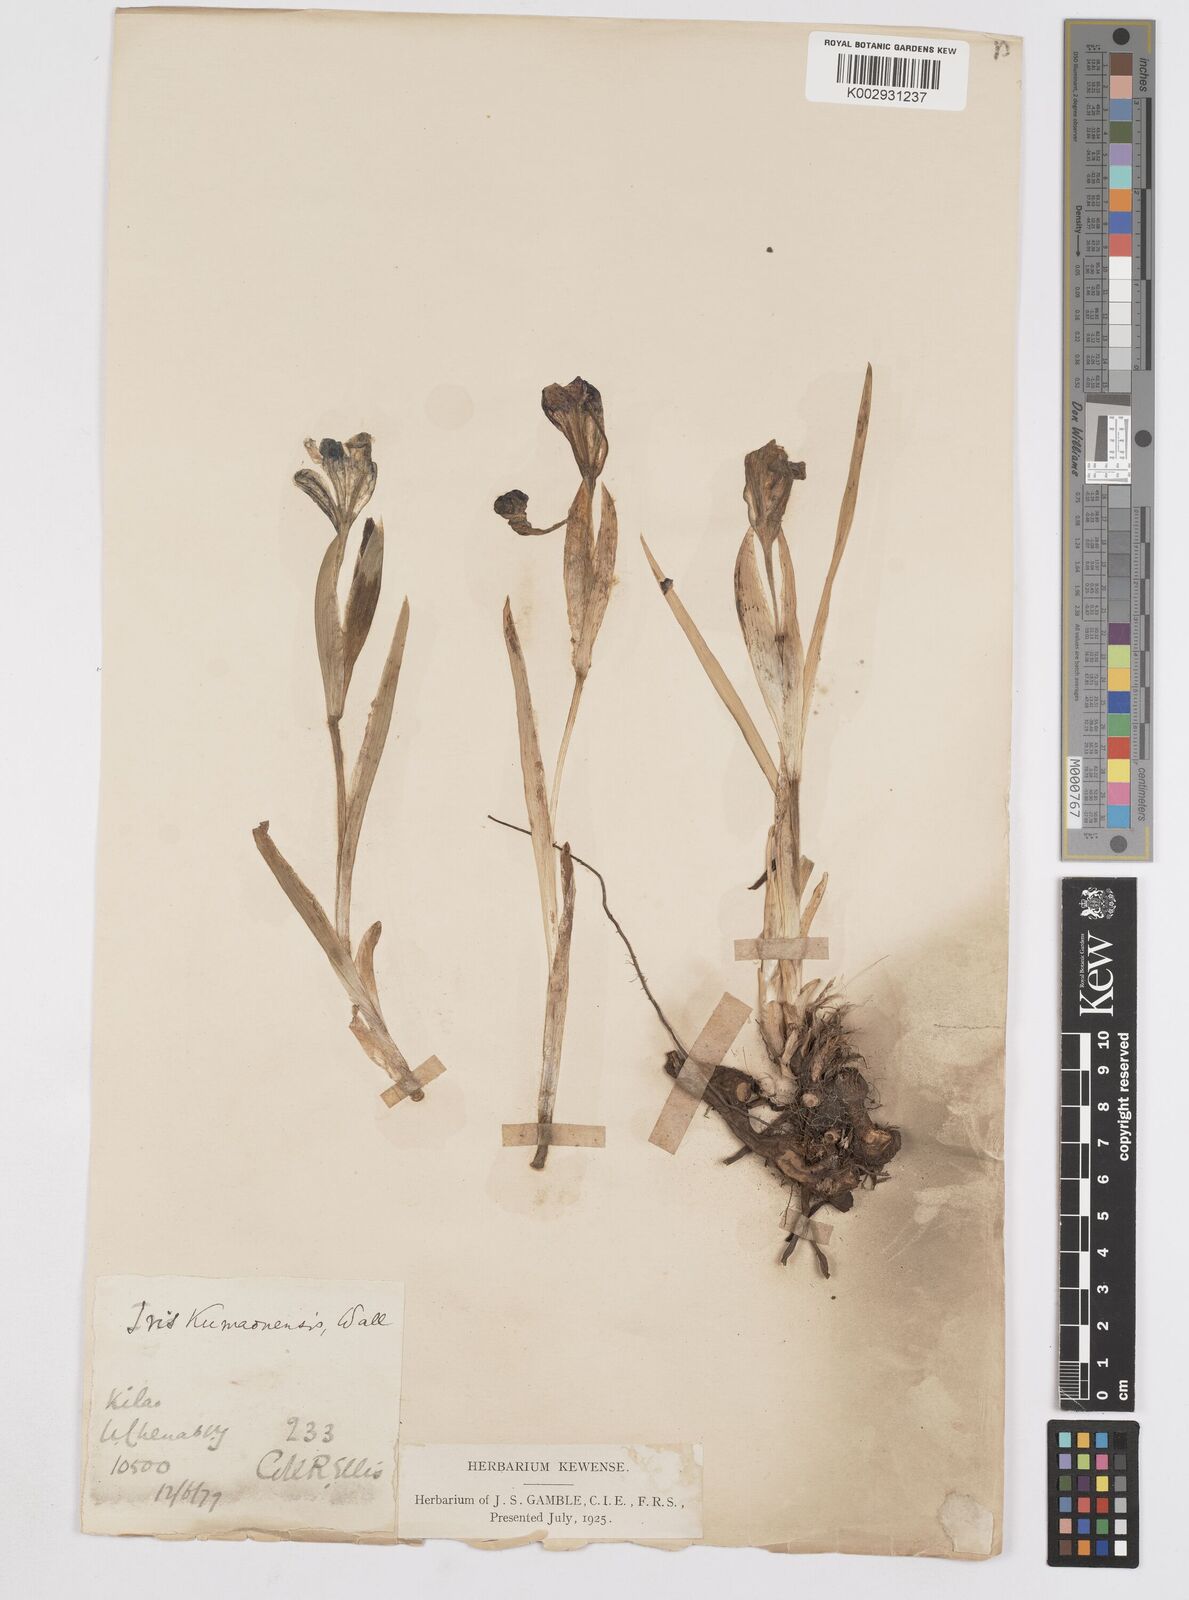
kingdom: Plantae
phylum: Tracheophyta
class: Liliopsida
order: Asparagales
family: Iridaceae
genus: Iris
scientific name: Iris hookeriana
